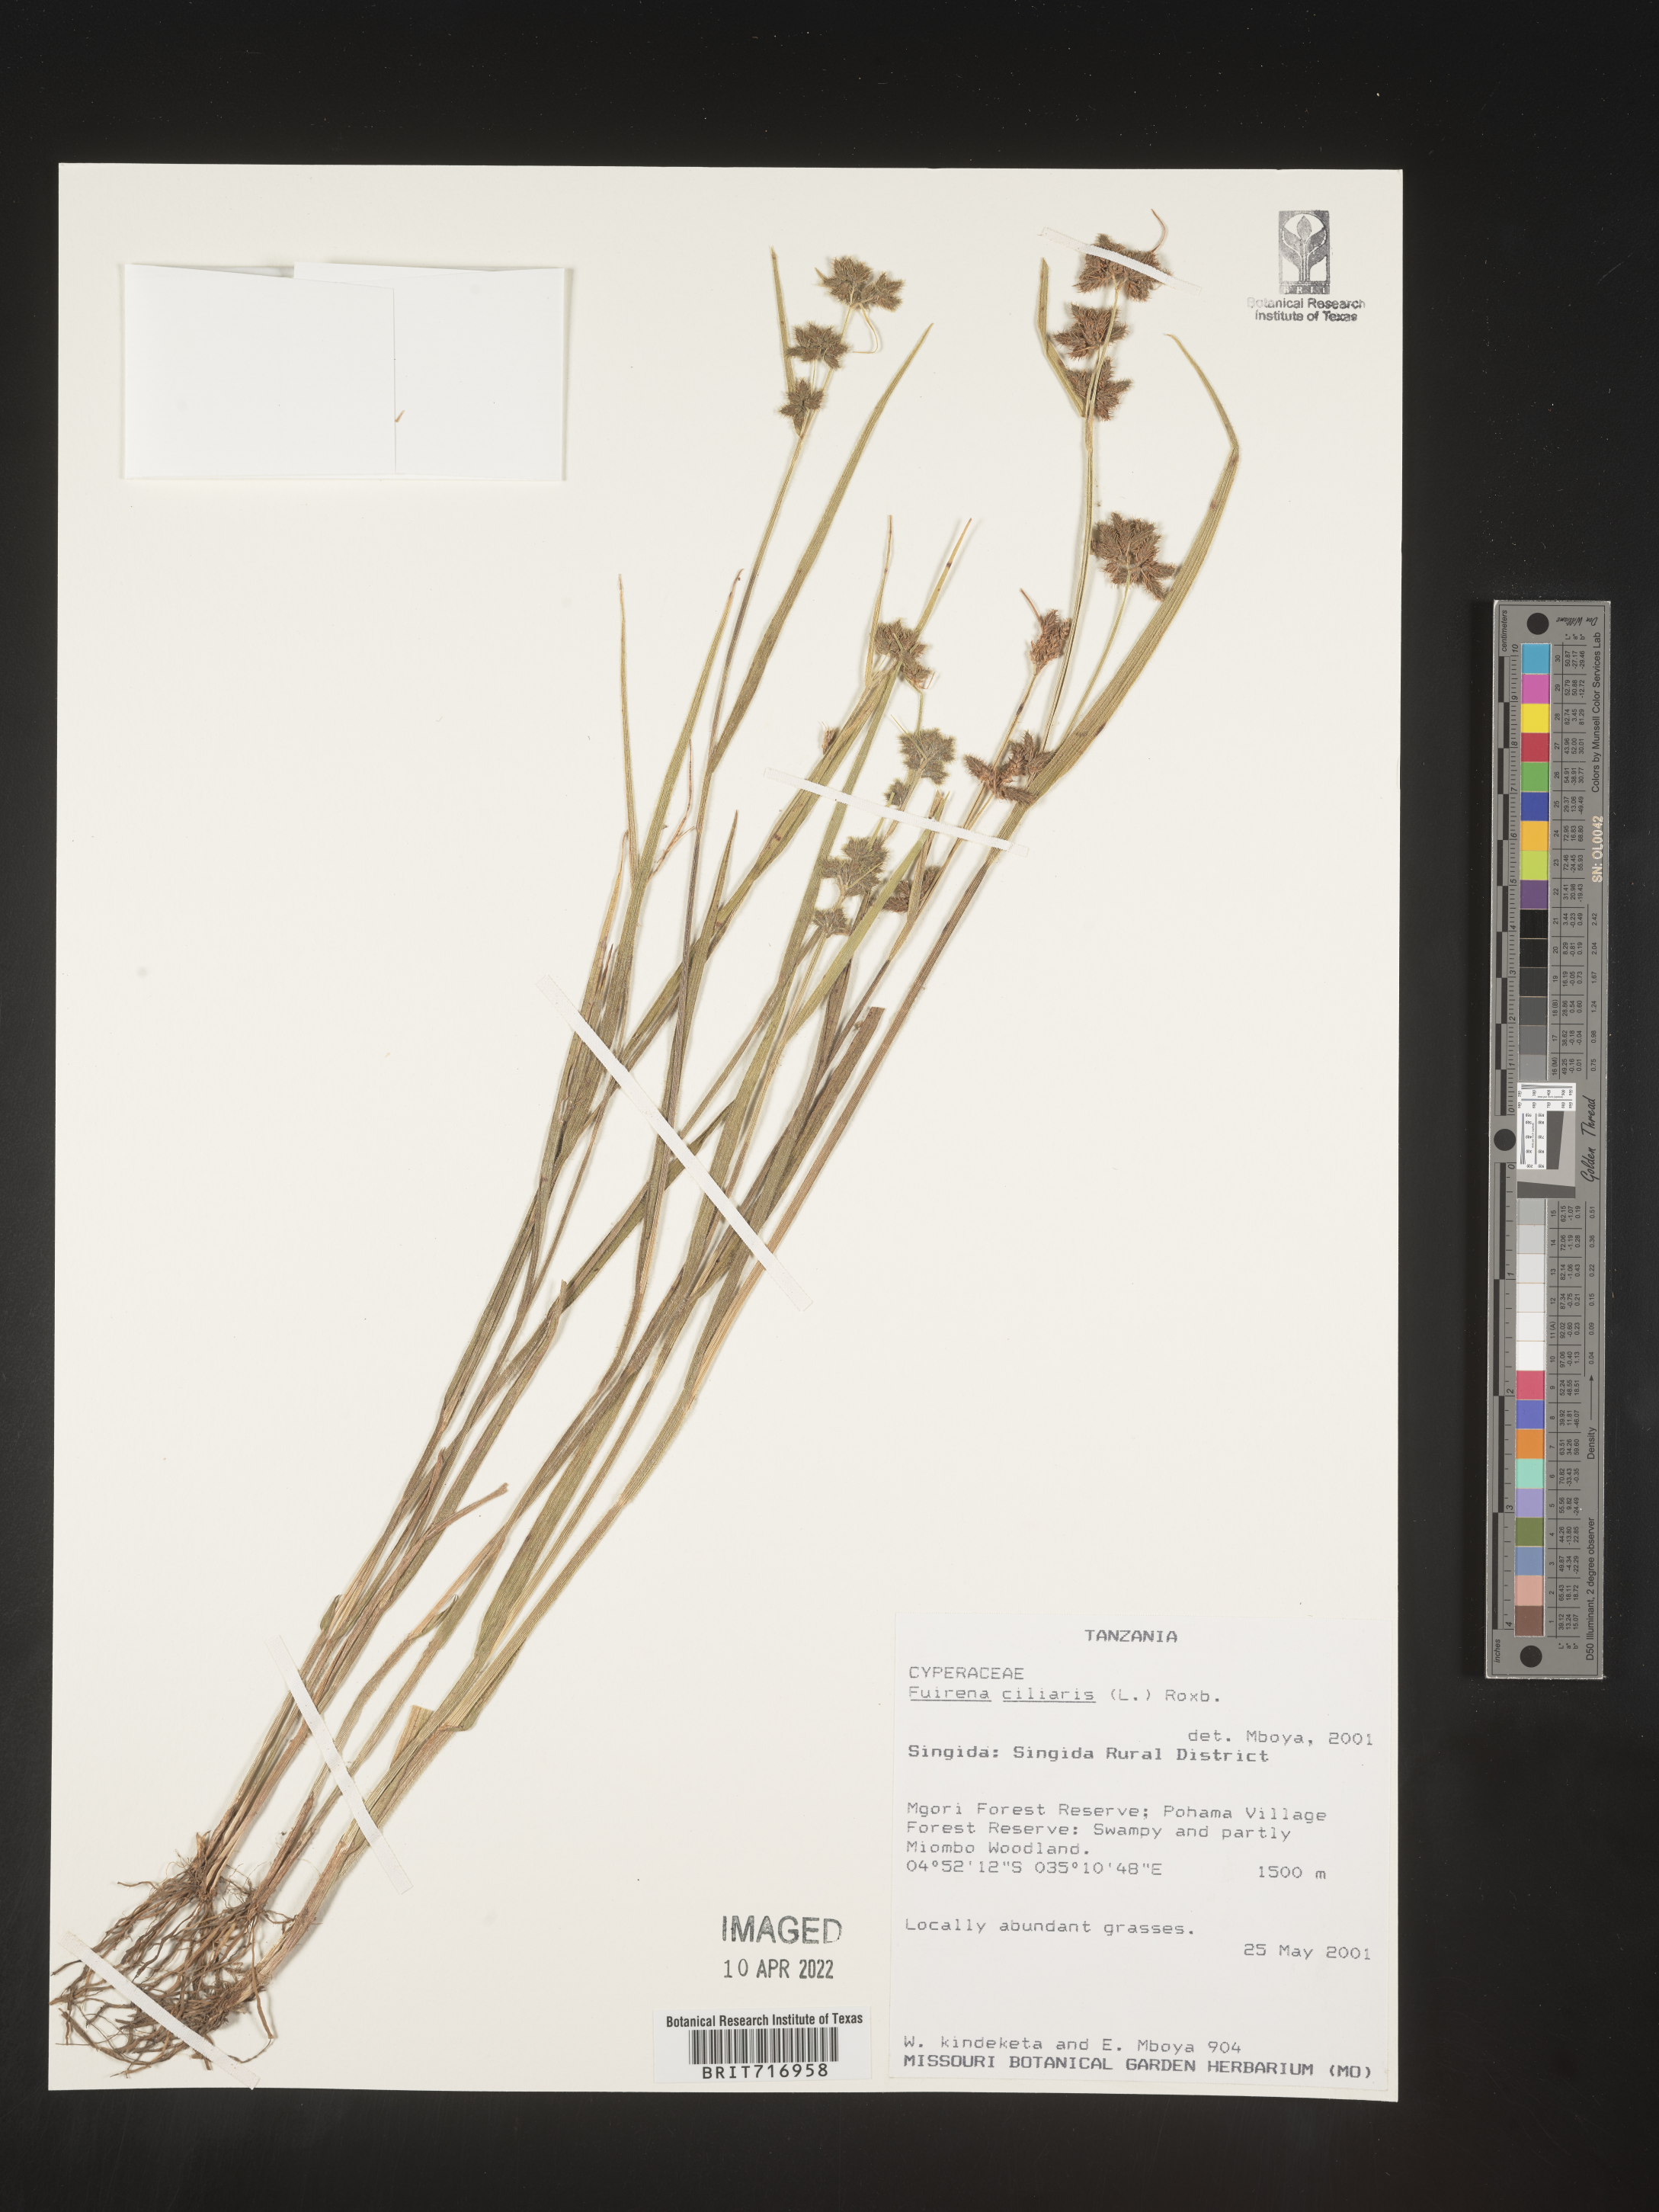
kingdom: Plantae
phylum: Tracheophyta
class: Liliopsida
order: Poales
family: Cyperaceae
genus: Fuirena
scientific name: Fuirena
